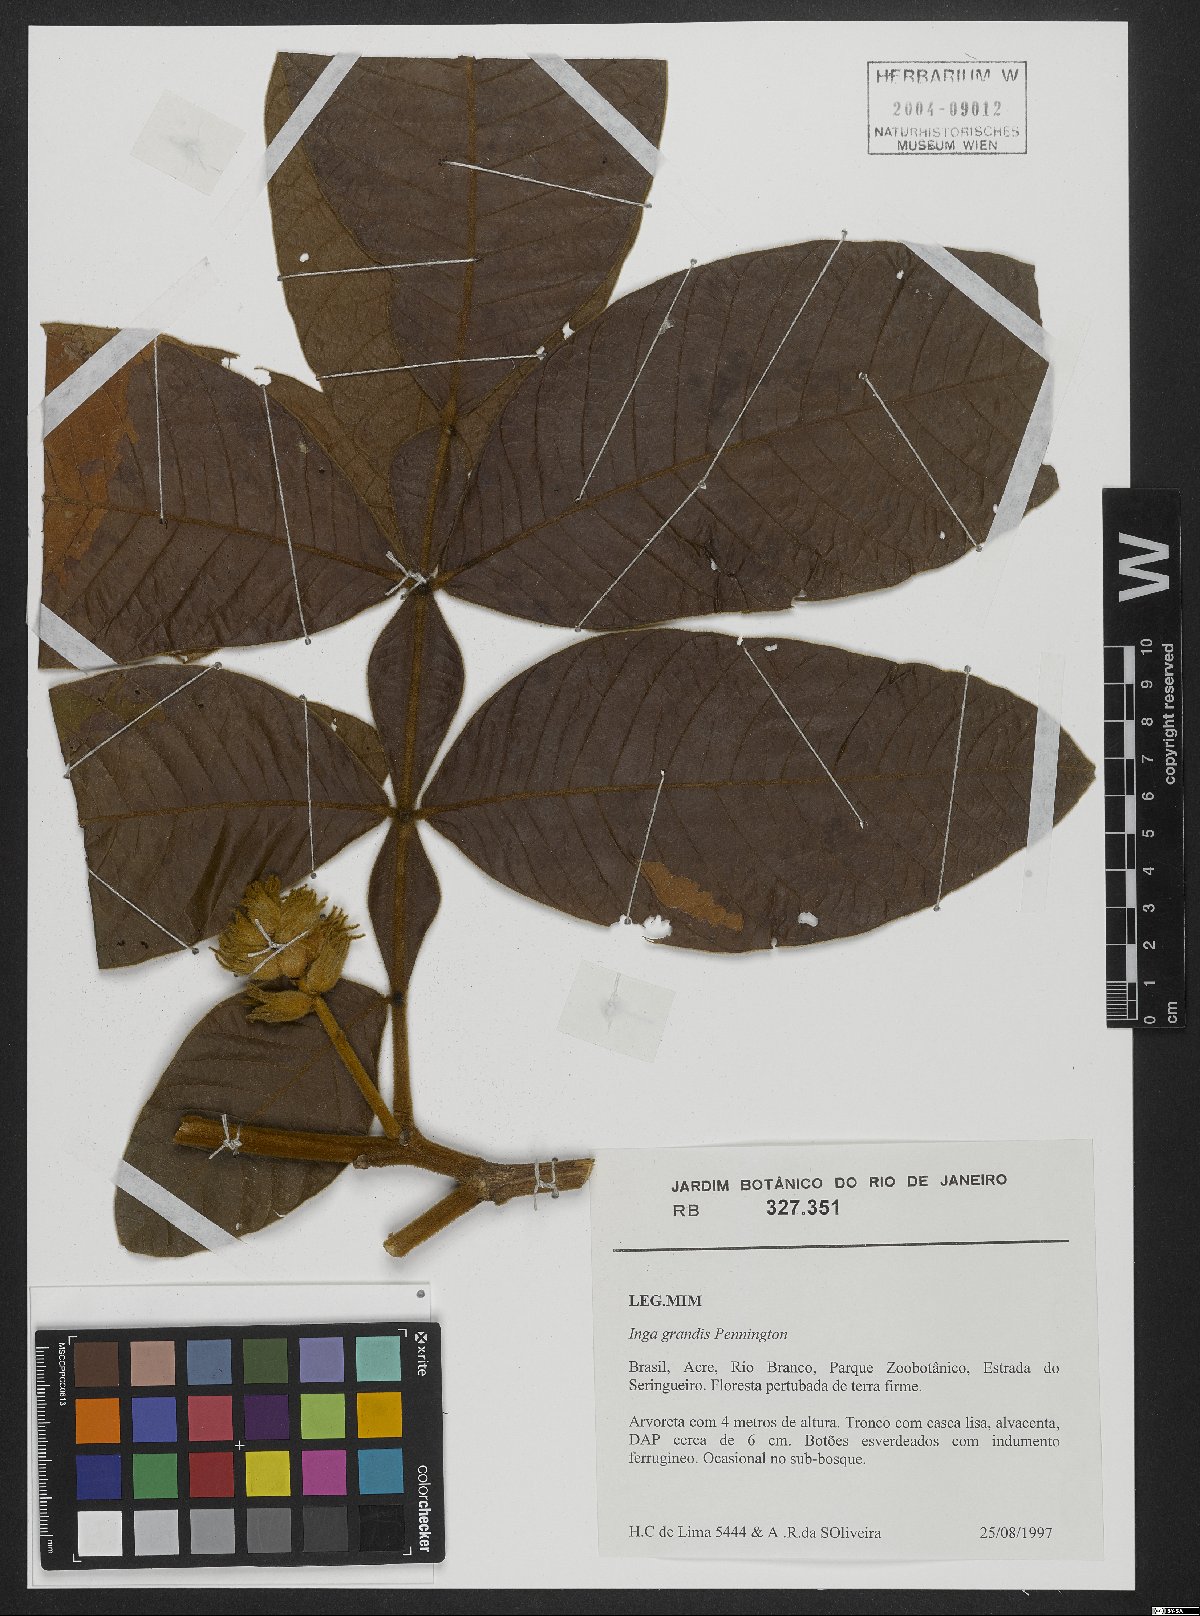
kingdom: Plantae
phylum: Tracheophyta
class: Magnoliopsida
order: Fabales
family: Fabaceae
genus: Inga
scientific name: Inga grandis
